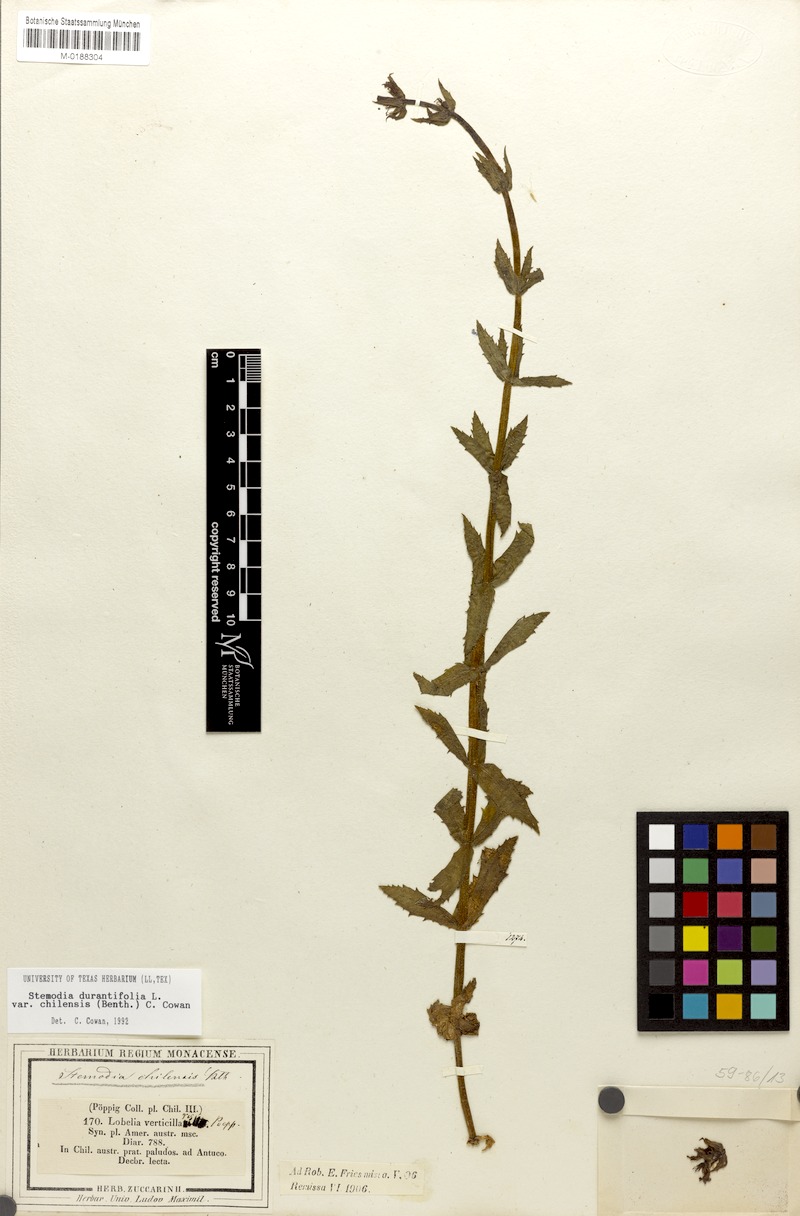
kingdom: Plantae
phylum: Tracheophyta
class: Magnoliopsida
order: Lamiales
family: Plantaginaceae
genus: Stemodia
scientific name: Stemodia durantifolia
